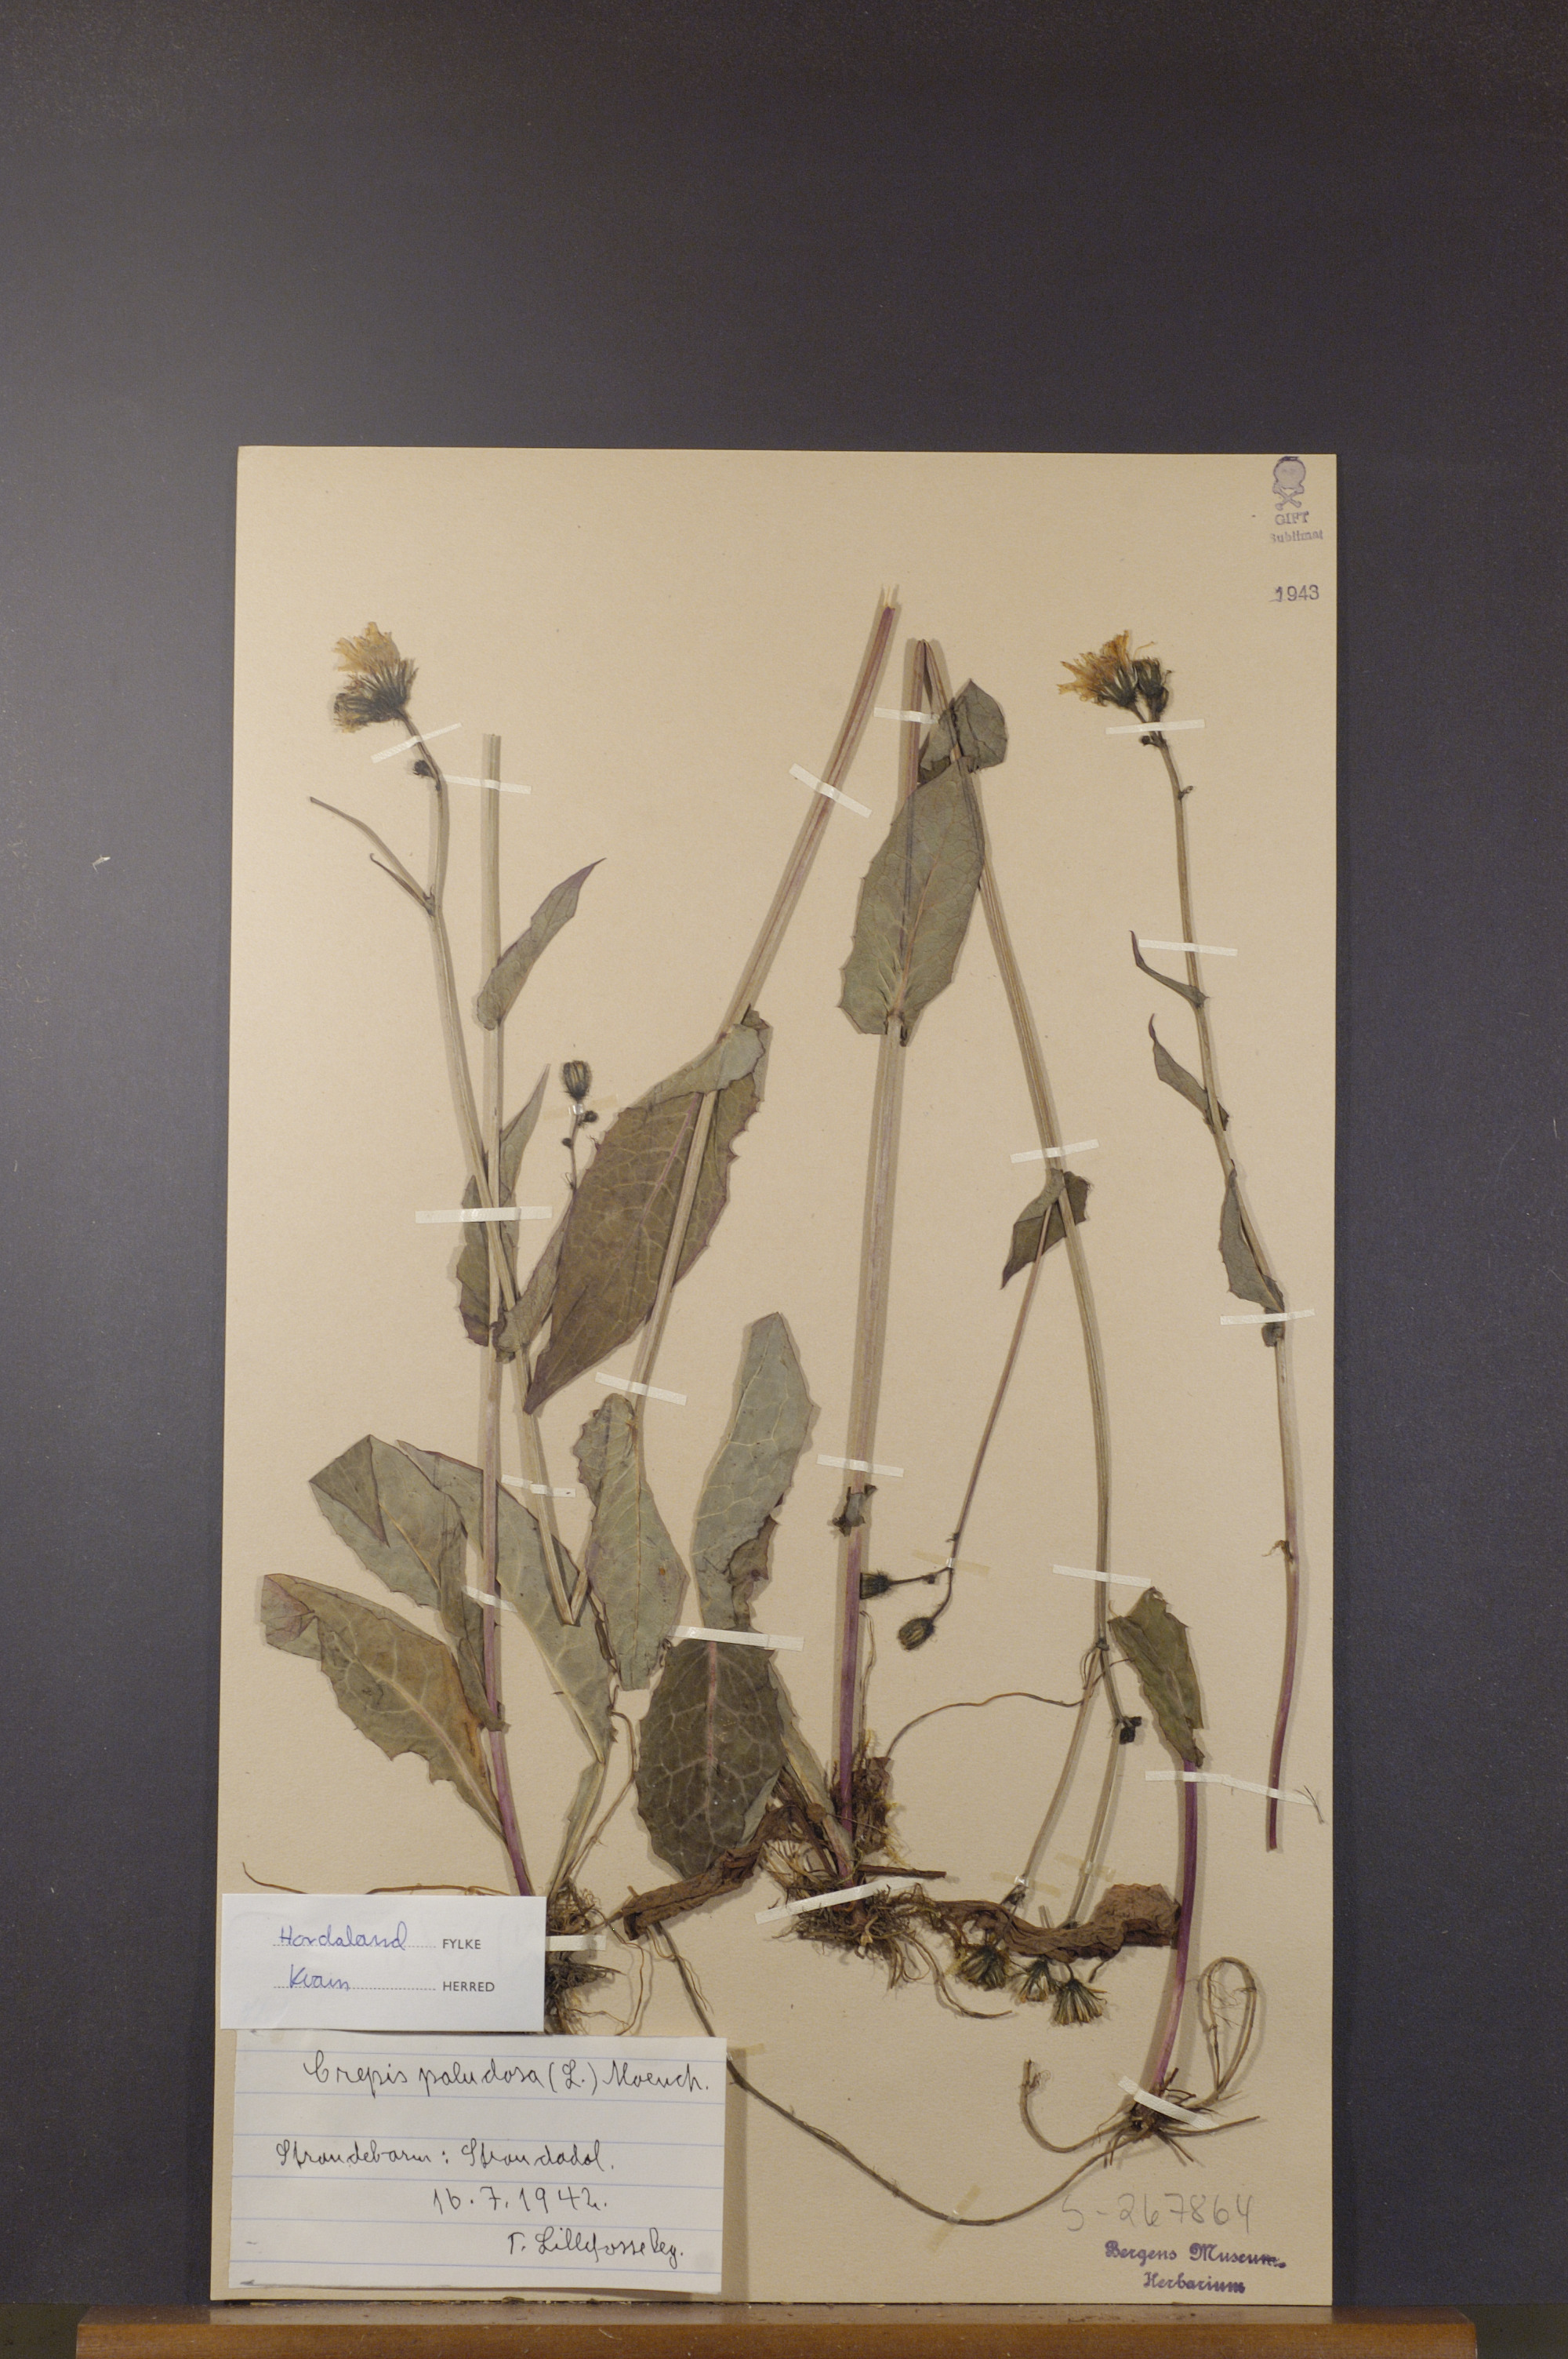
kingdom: Plantae
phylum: Tracheophyta
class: Magnoliopsida
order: Asterales
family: Asteraceae
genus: Crepis
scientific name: Crepis paludosa
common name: Marsh hawk's-beard
